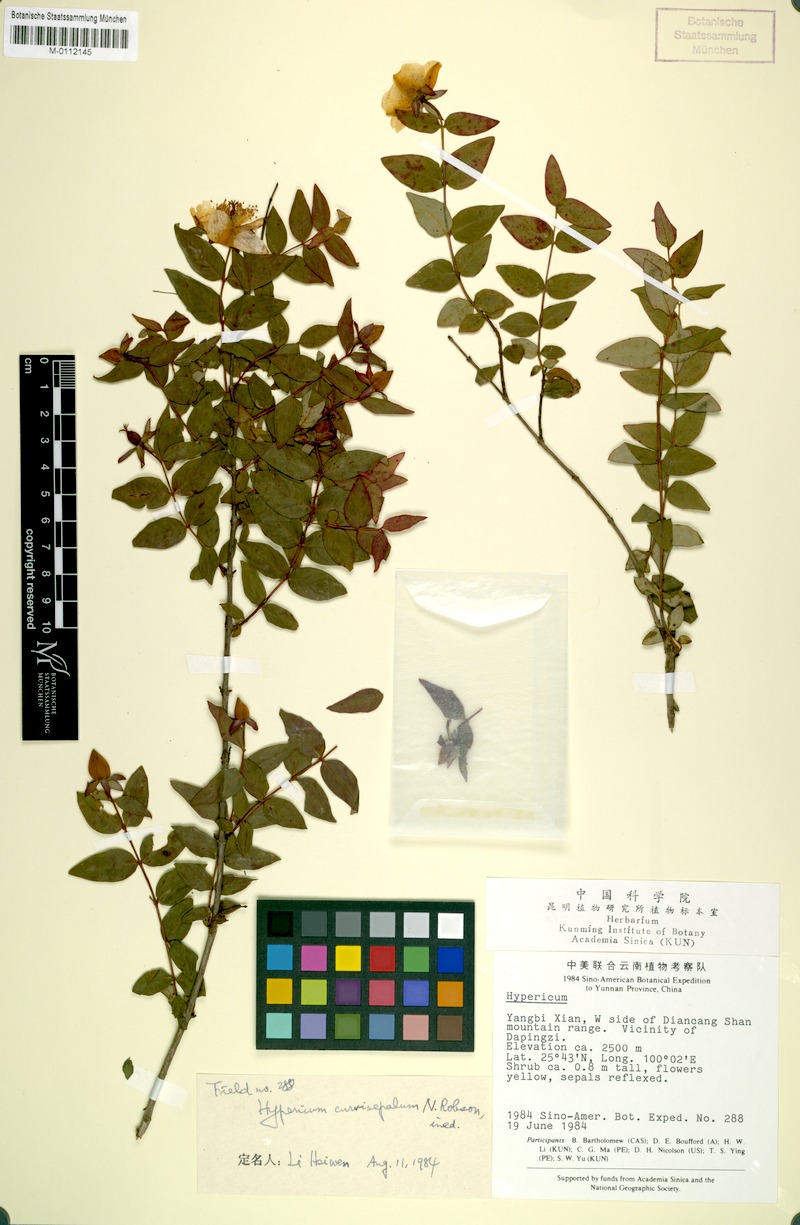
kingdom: Plantae
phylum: Tracheophyta
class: Magnoliopsida
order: Malpighiales
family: Hypericaceae
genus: Hypericum
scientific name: Hypericum curvisepalum
